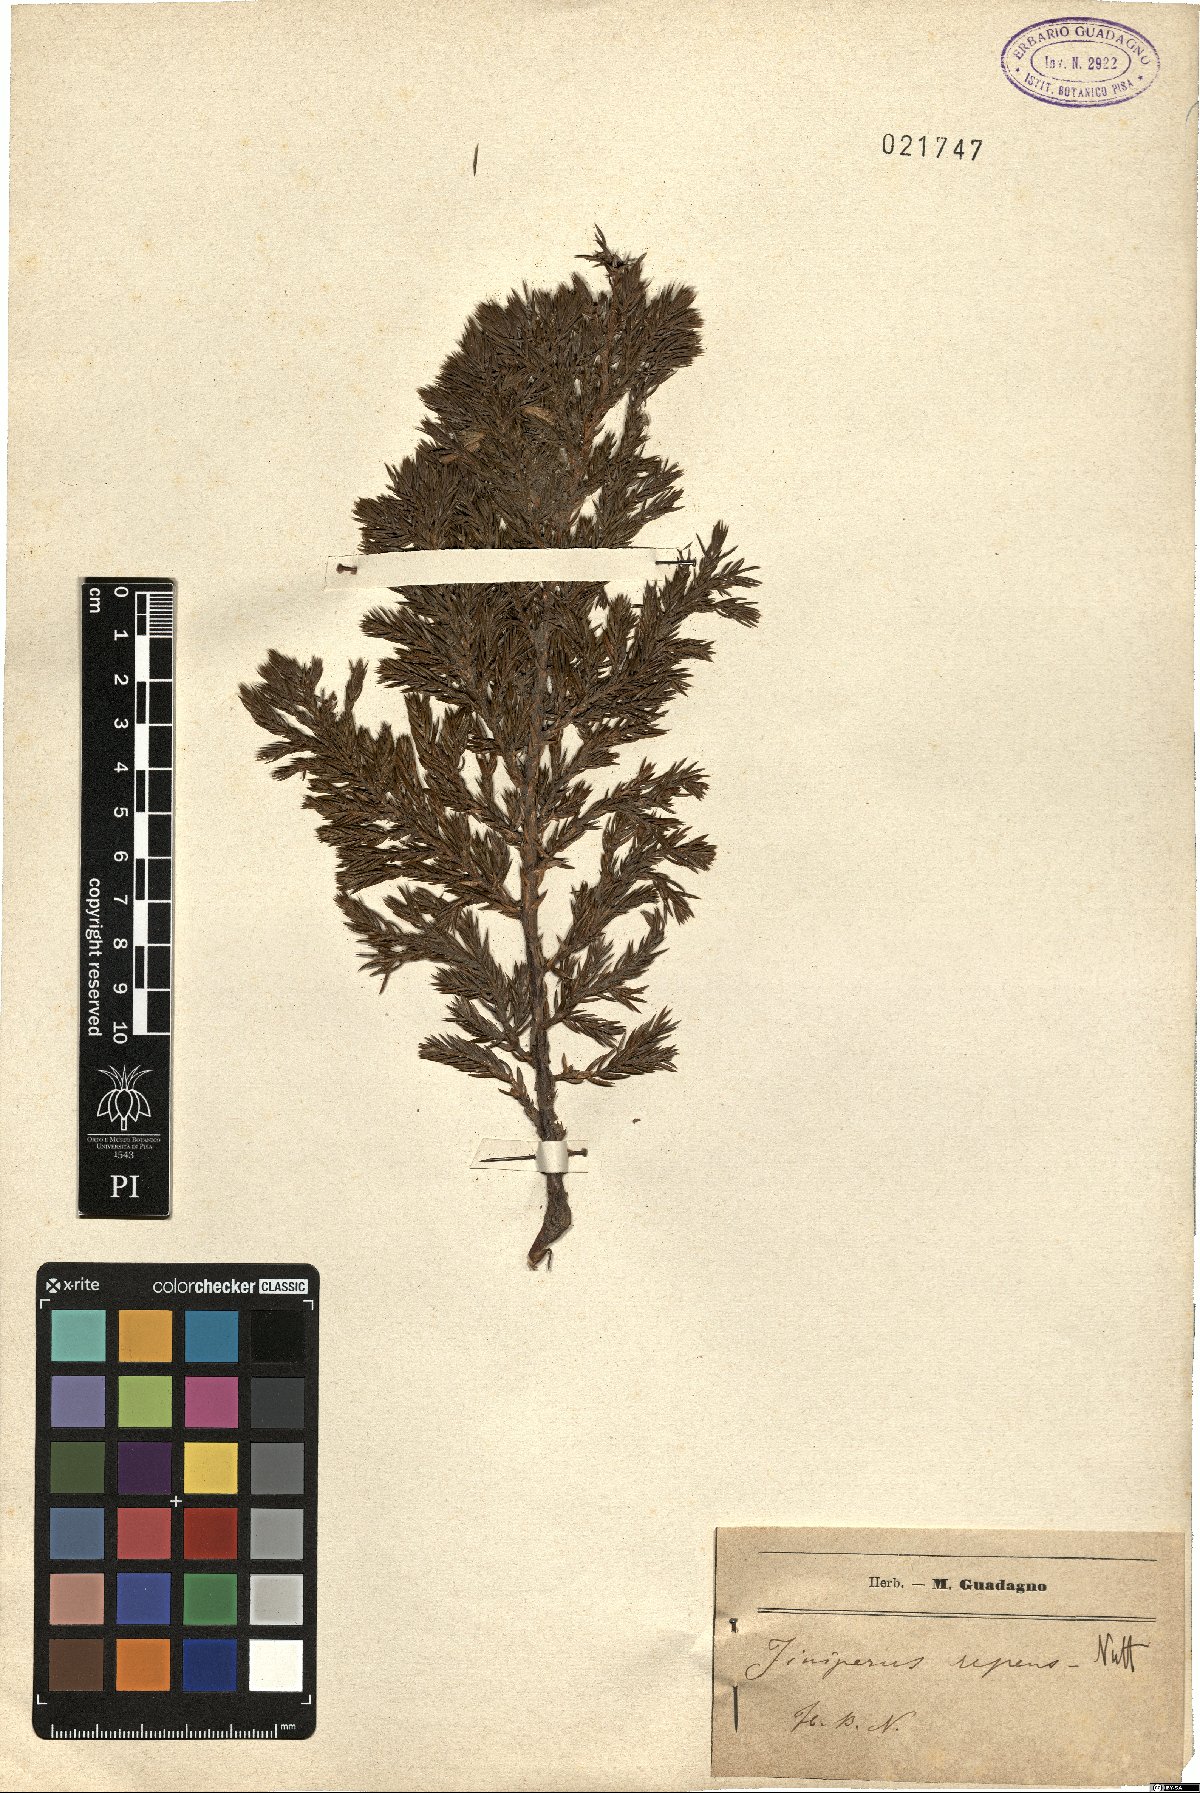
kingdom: Plantae
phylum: Tracheophyta
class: Pinopsida
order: Pinales
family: Cupressaceae
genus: Juniperus
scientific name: Juniperus
